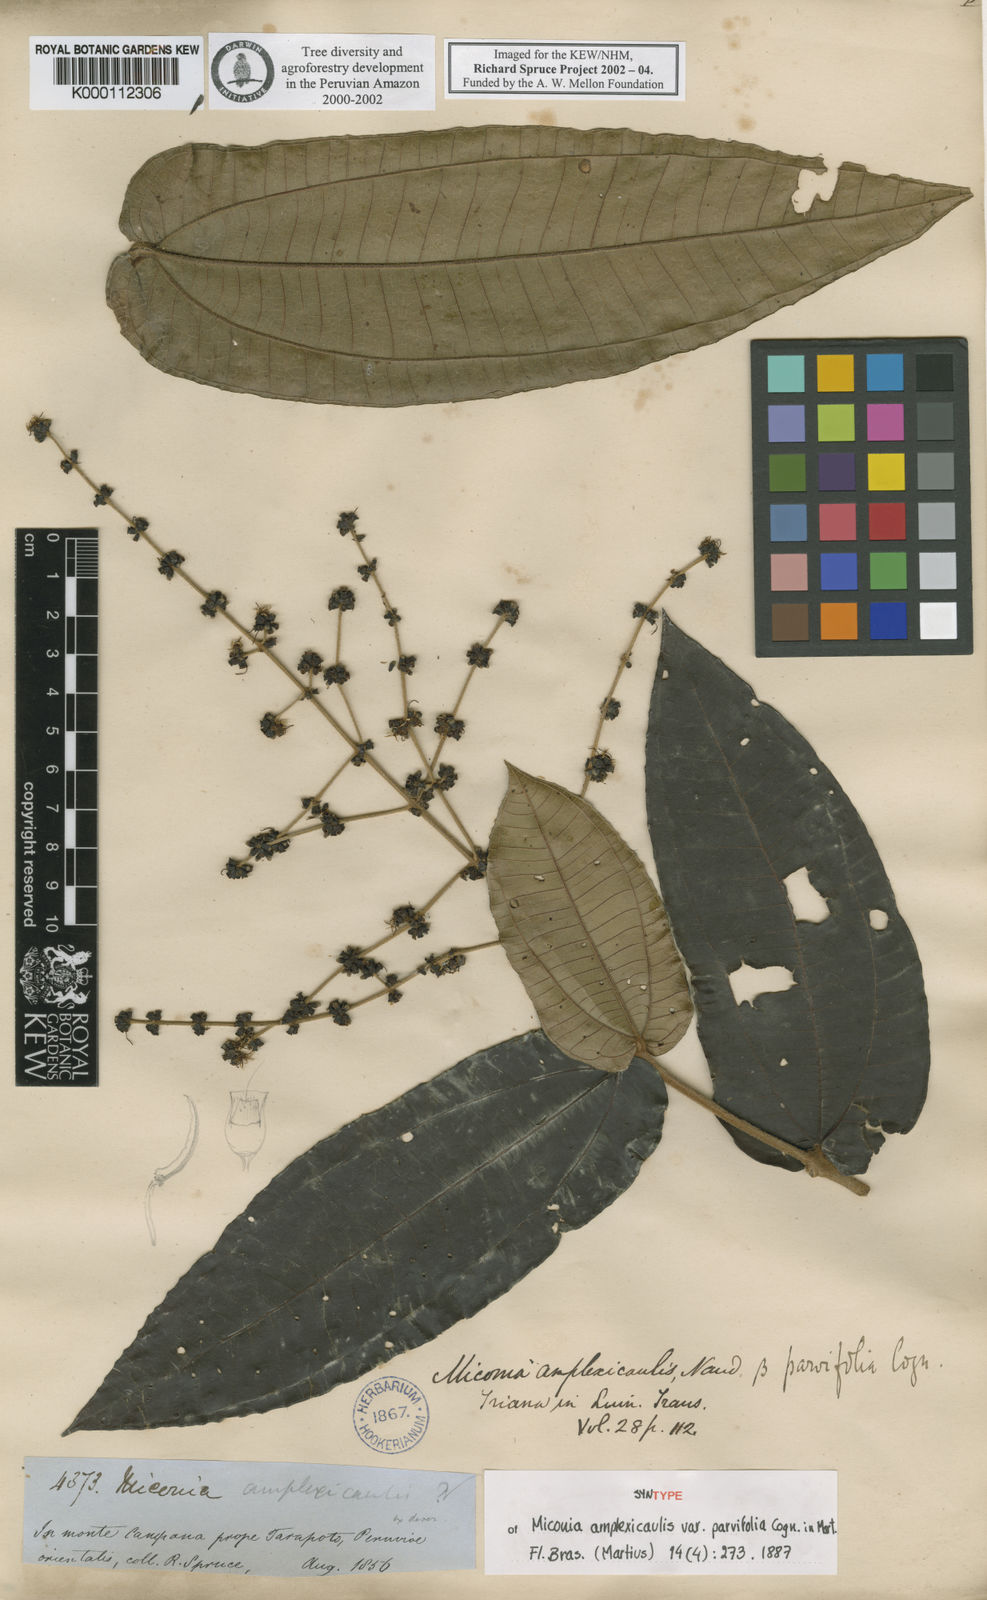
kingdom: Plantae
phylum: Tracheophyta
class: Magnoliopsida
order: Myrtales
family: Melastomataceae
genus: Miconia
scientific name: Miconia amplexicaulis
